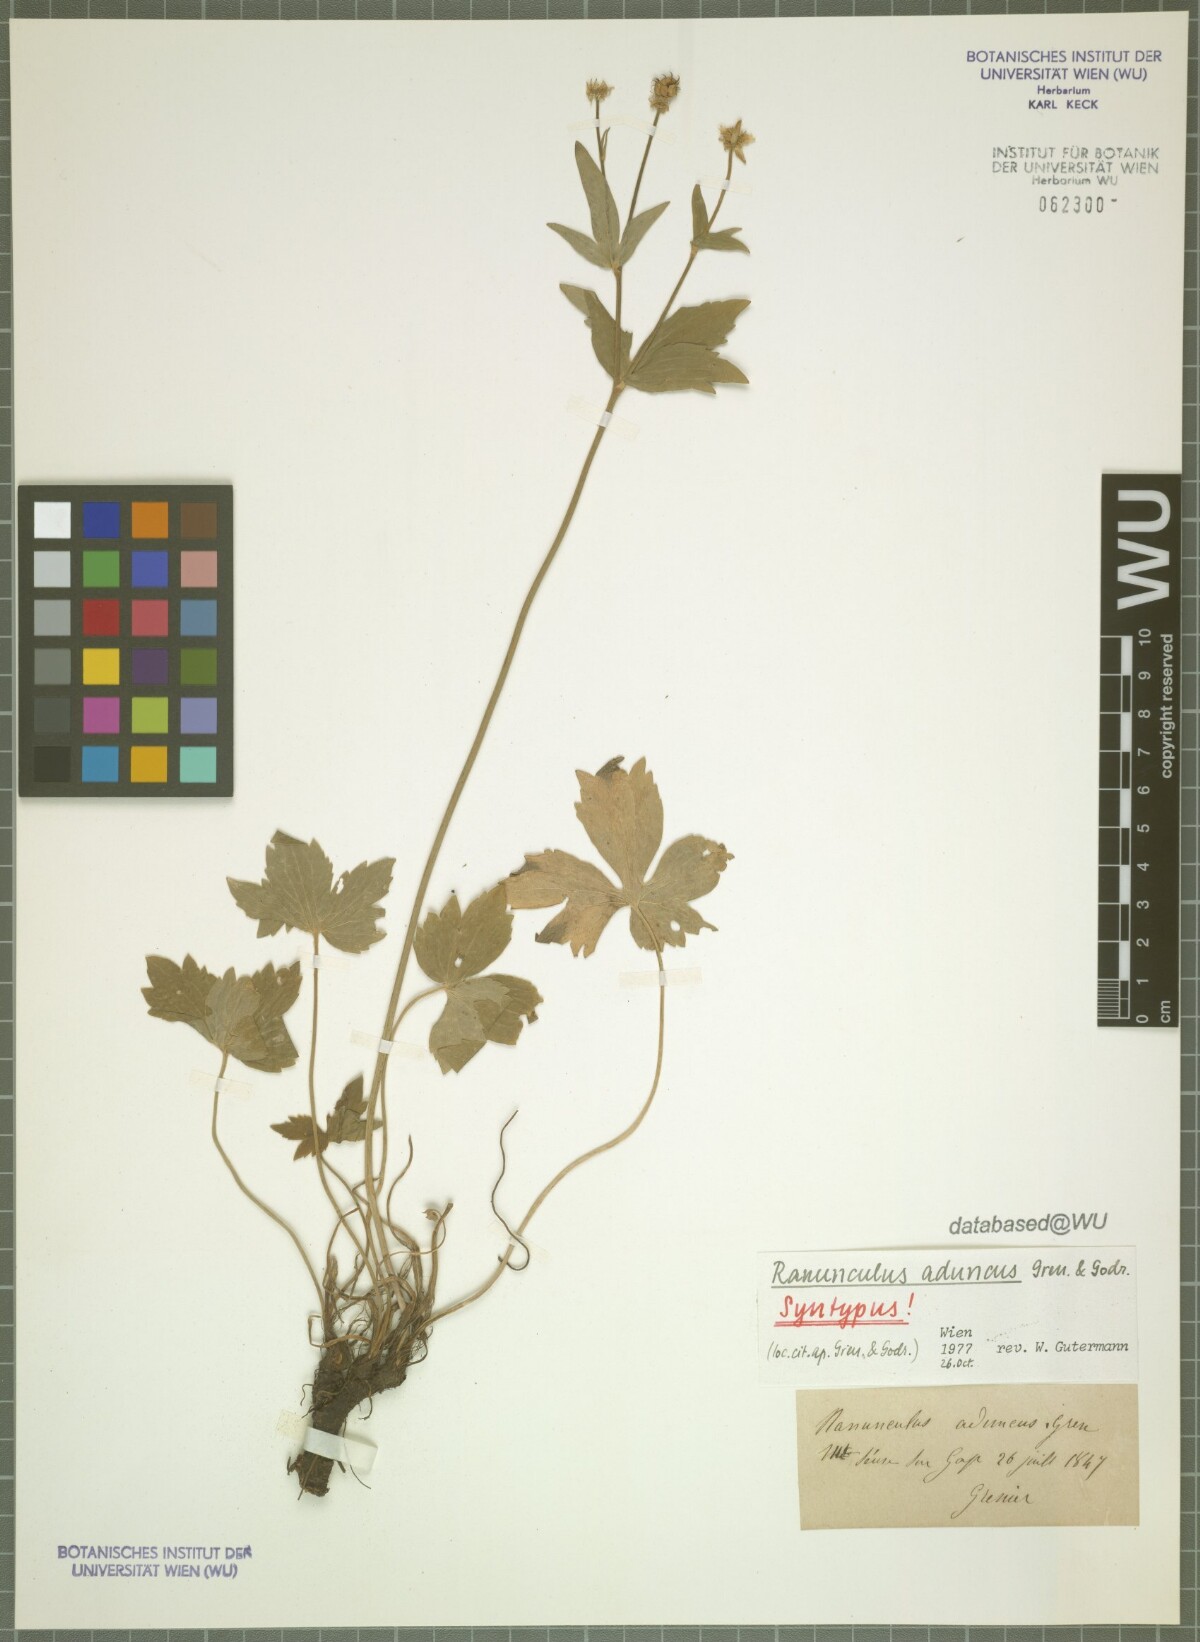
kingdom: Plantae
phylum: Tracheophyta
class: Magnoliopsida
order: Ranunculales
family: Ranunculaceae
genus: Ranunculus
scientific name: Ranunculus aduncus
